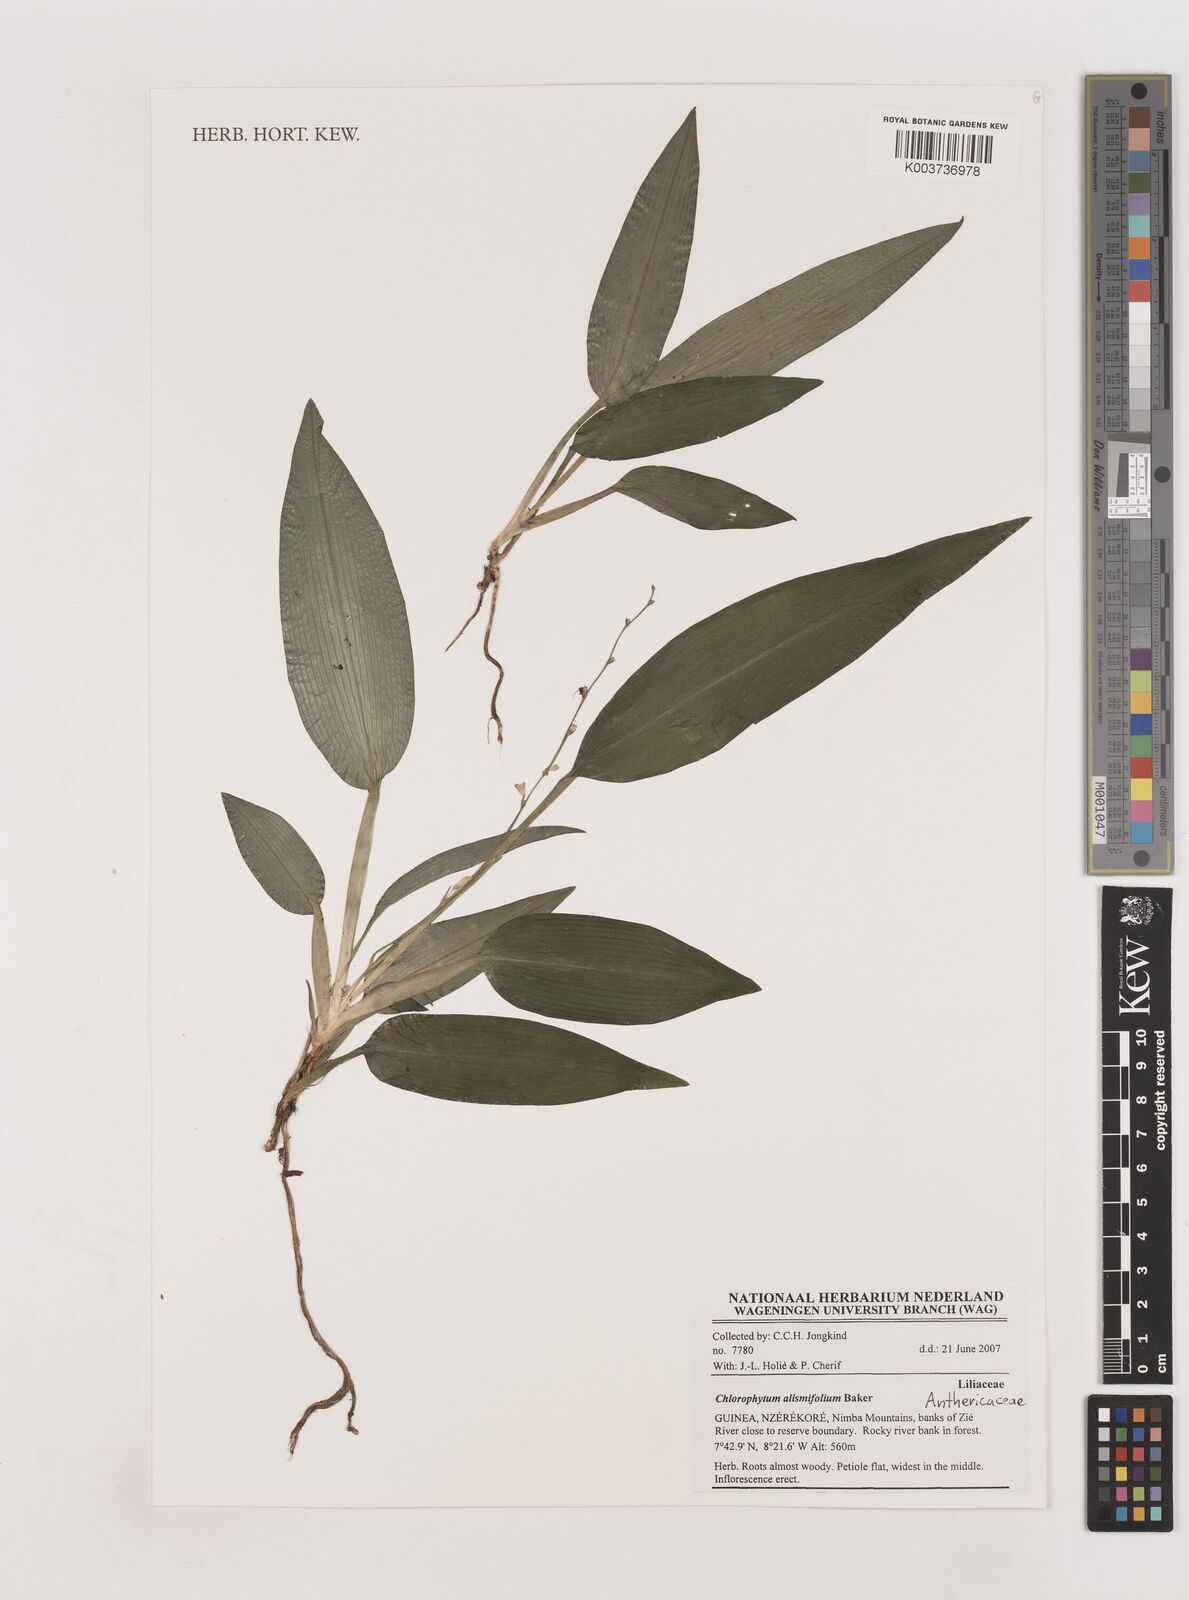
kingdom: Plantae
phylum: Tracheophyta
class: Liliopsida
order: Asparagales
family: Asparagaceae
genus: Chlorophytum
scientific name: Chlorophytum alismifolium
